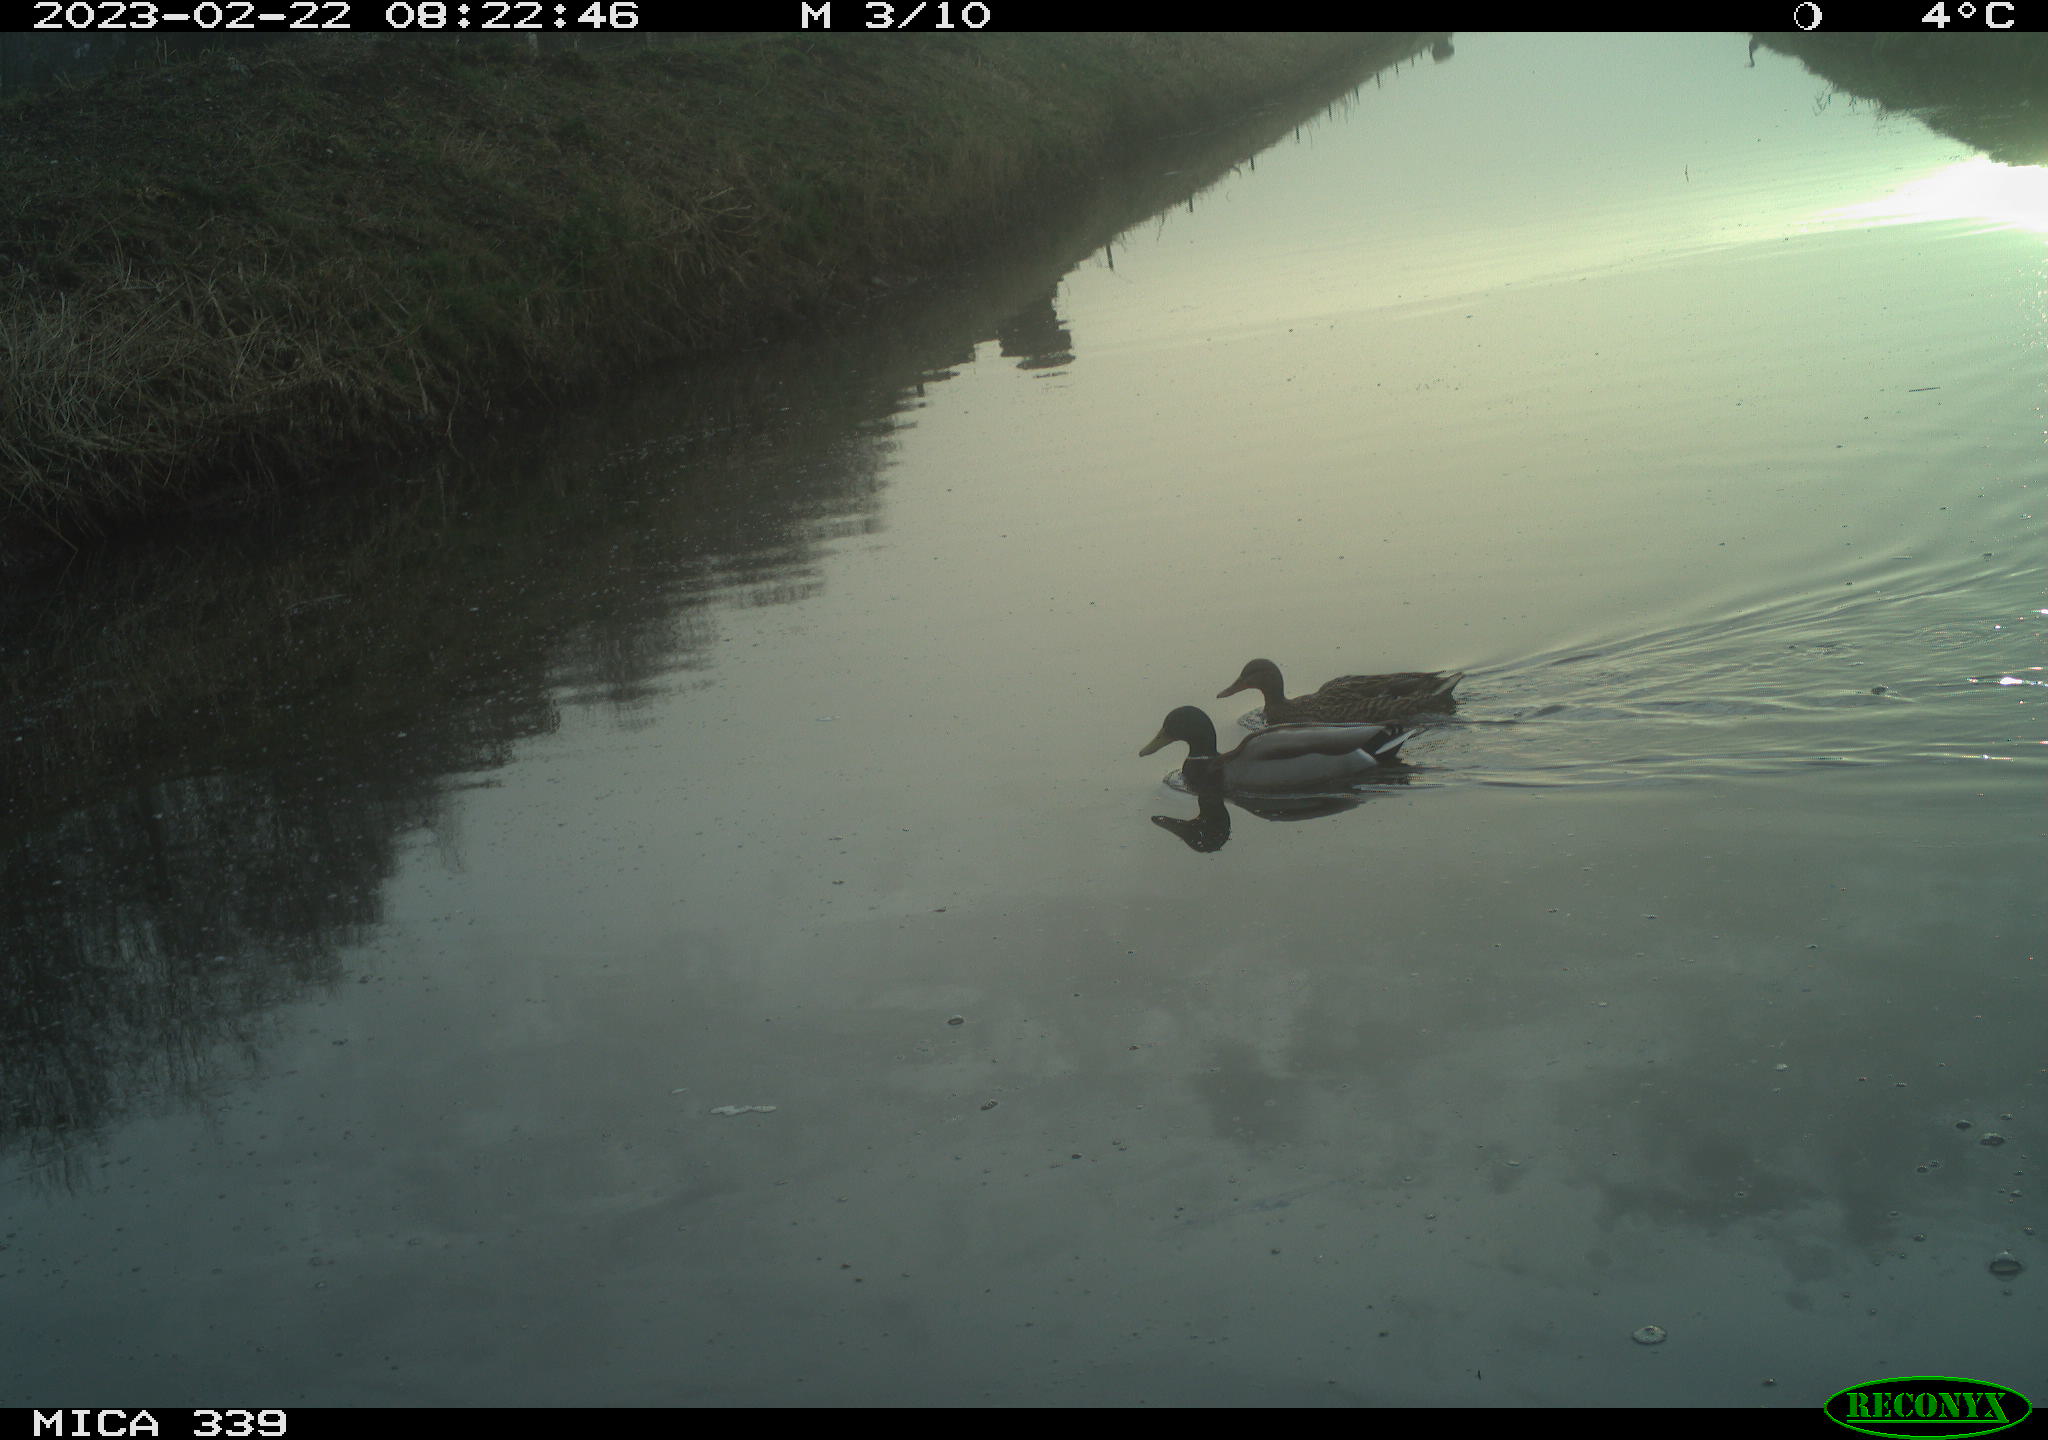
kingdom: Animalia
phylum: Chordata
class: Aves
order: Anseriformes
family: Anatidae
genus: Anas
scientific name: Anas
